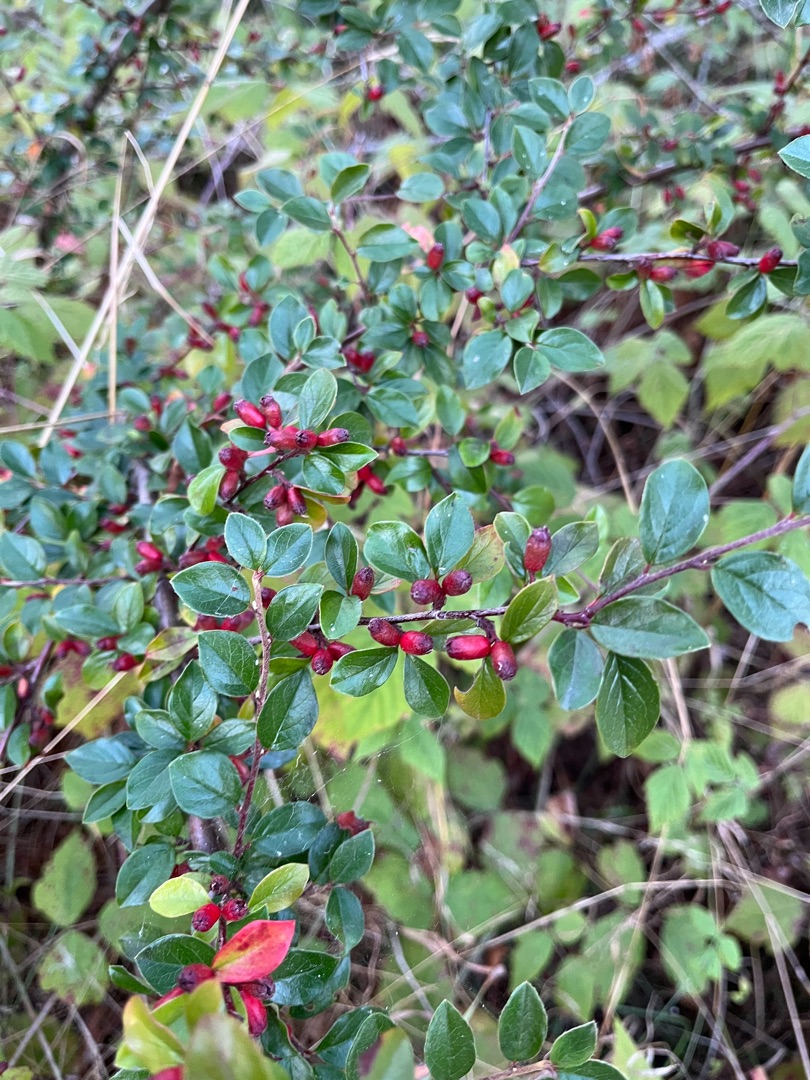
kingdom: Plantae
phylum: Tracheophyta
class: Magnoliopsida
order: Rosales
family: Rosaceae
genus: Cotoneaster
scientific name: Cotoneaster divaricatus
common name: Vifte-dværgmispel
